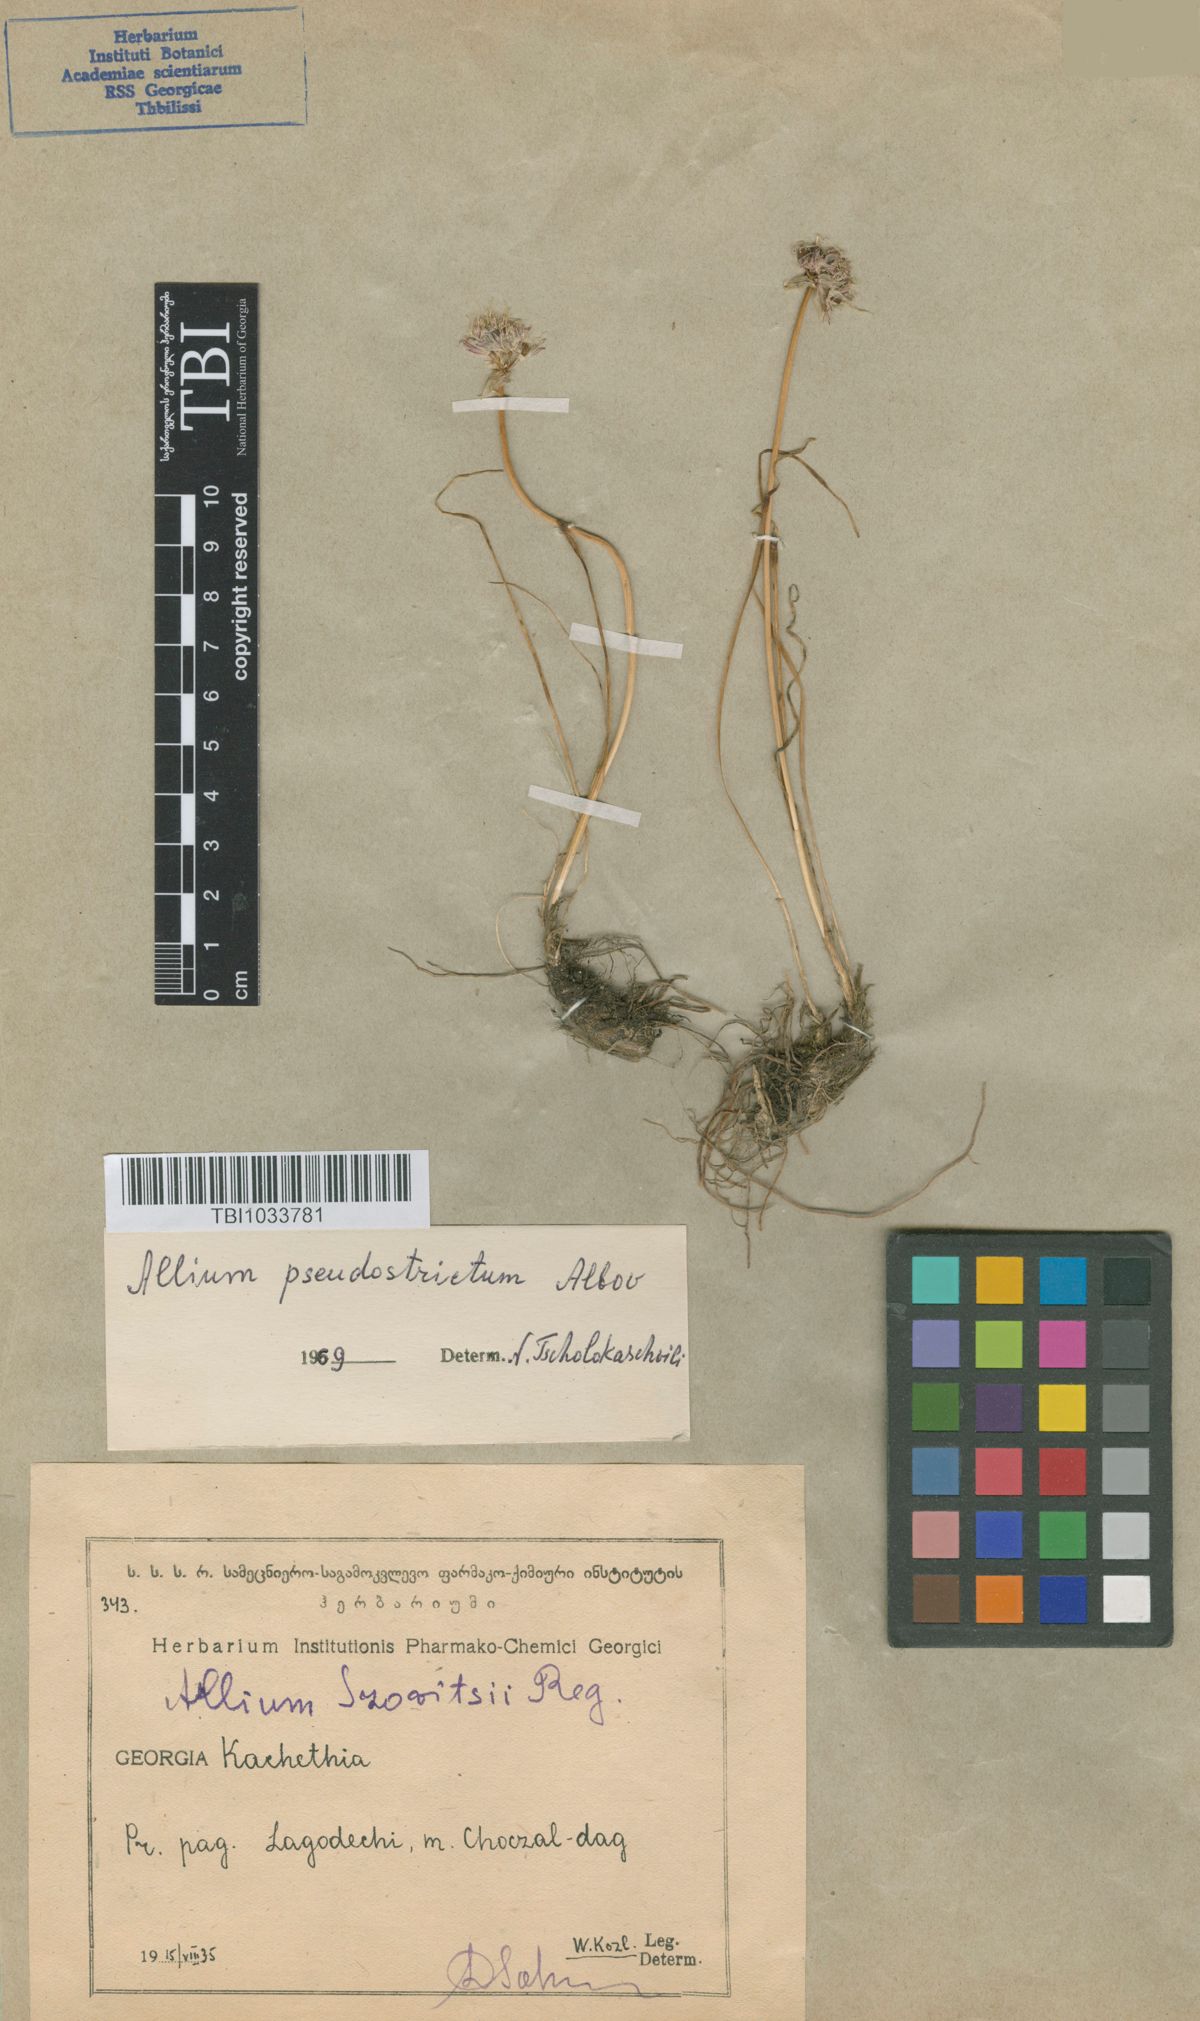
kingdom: Plantae
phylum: Tracheophyta
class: Liliopsida
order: Asparagales
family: Amaryllidaceae
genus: Allium
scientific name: Allium pseudostrictum
